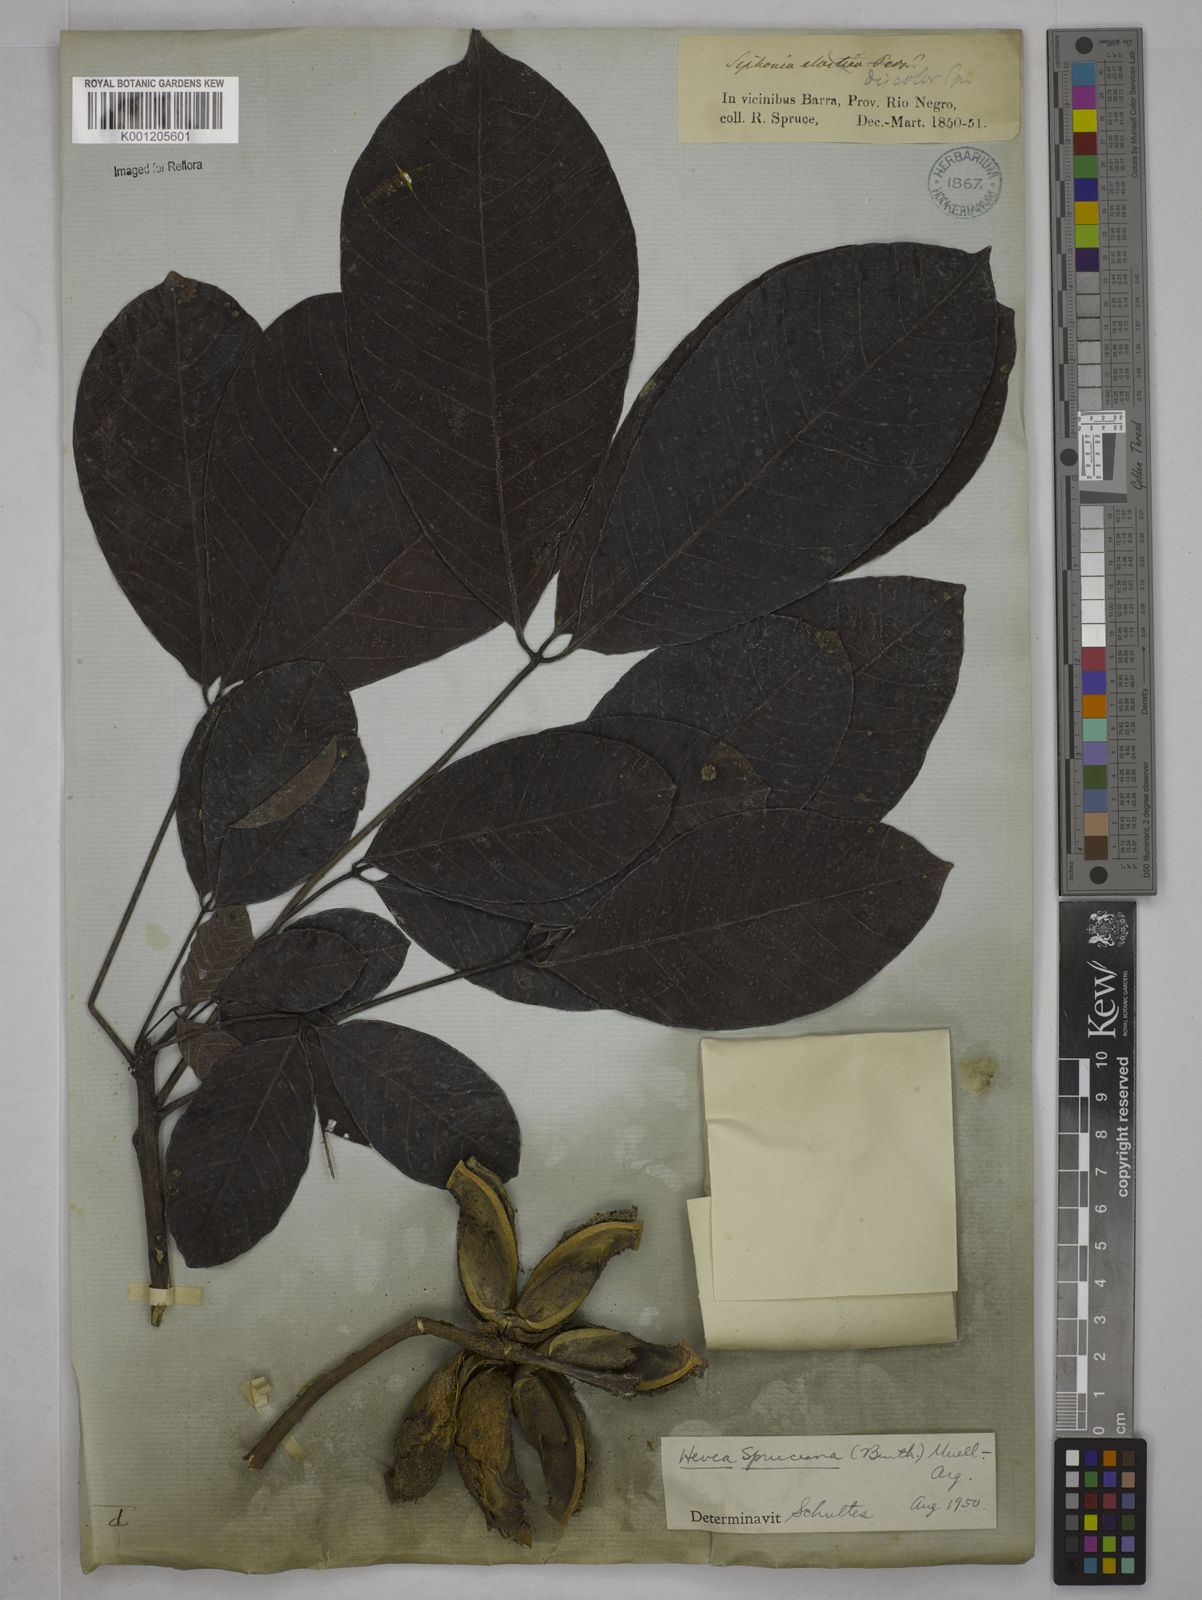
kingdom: Plantae
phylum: Tracheophyta
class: Magnoliopsida
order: Malpighiales
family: Euphorbiaceae
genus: Hevea
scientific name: Hevea
